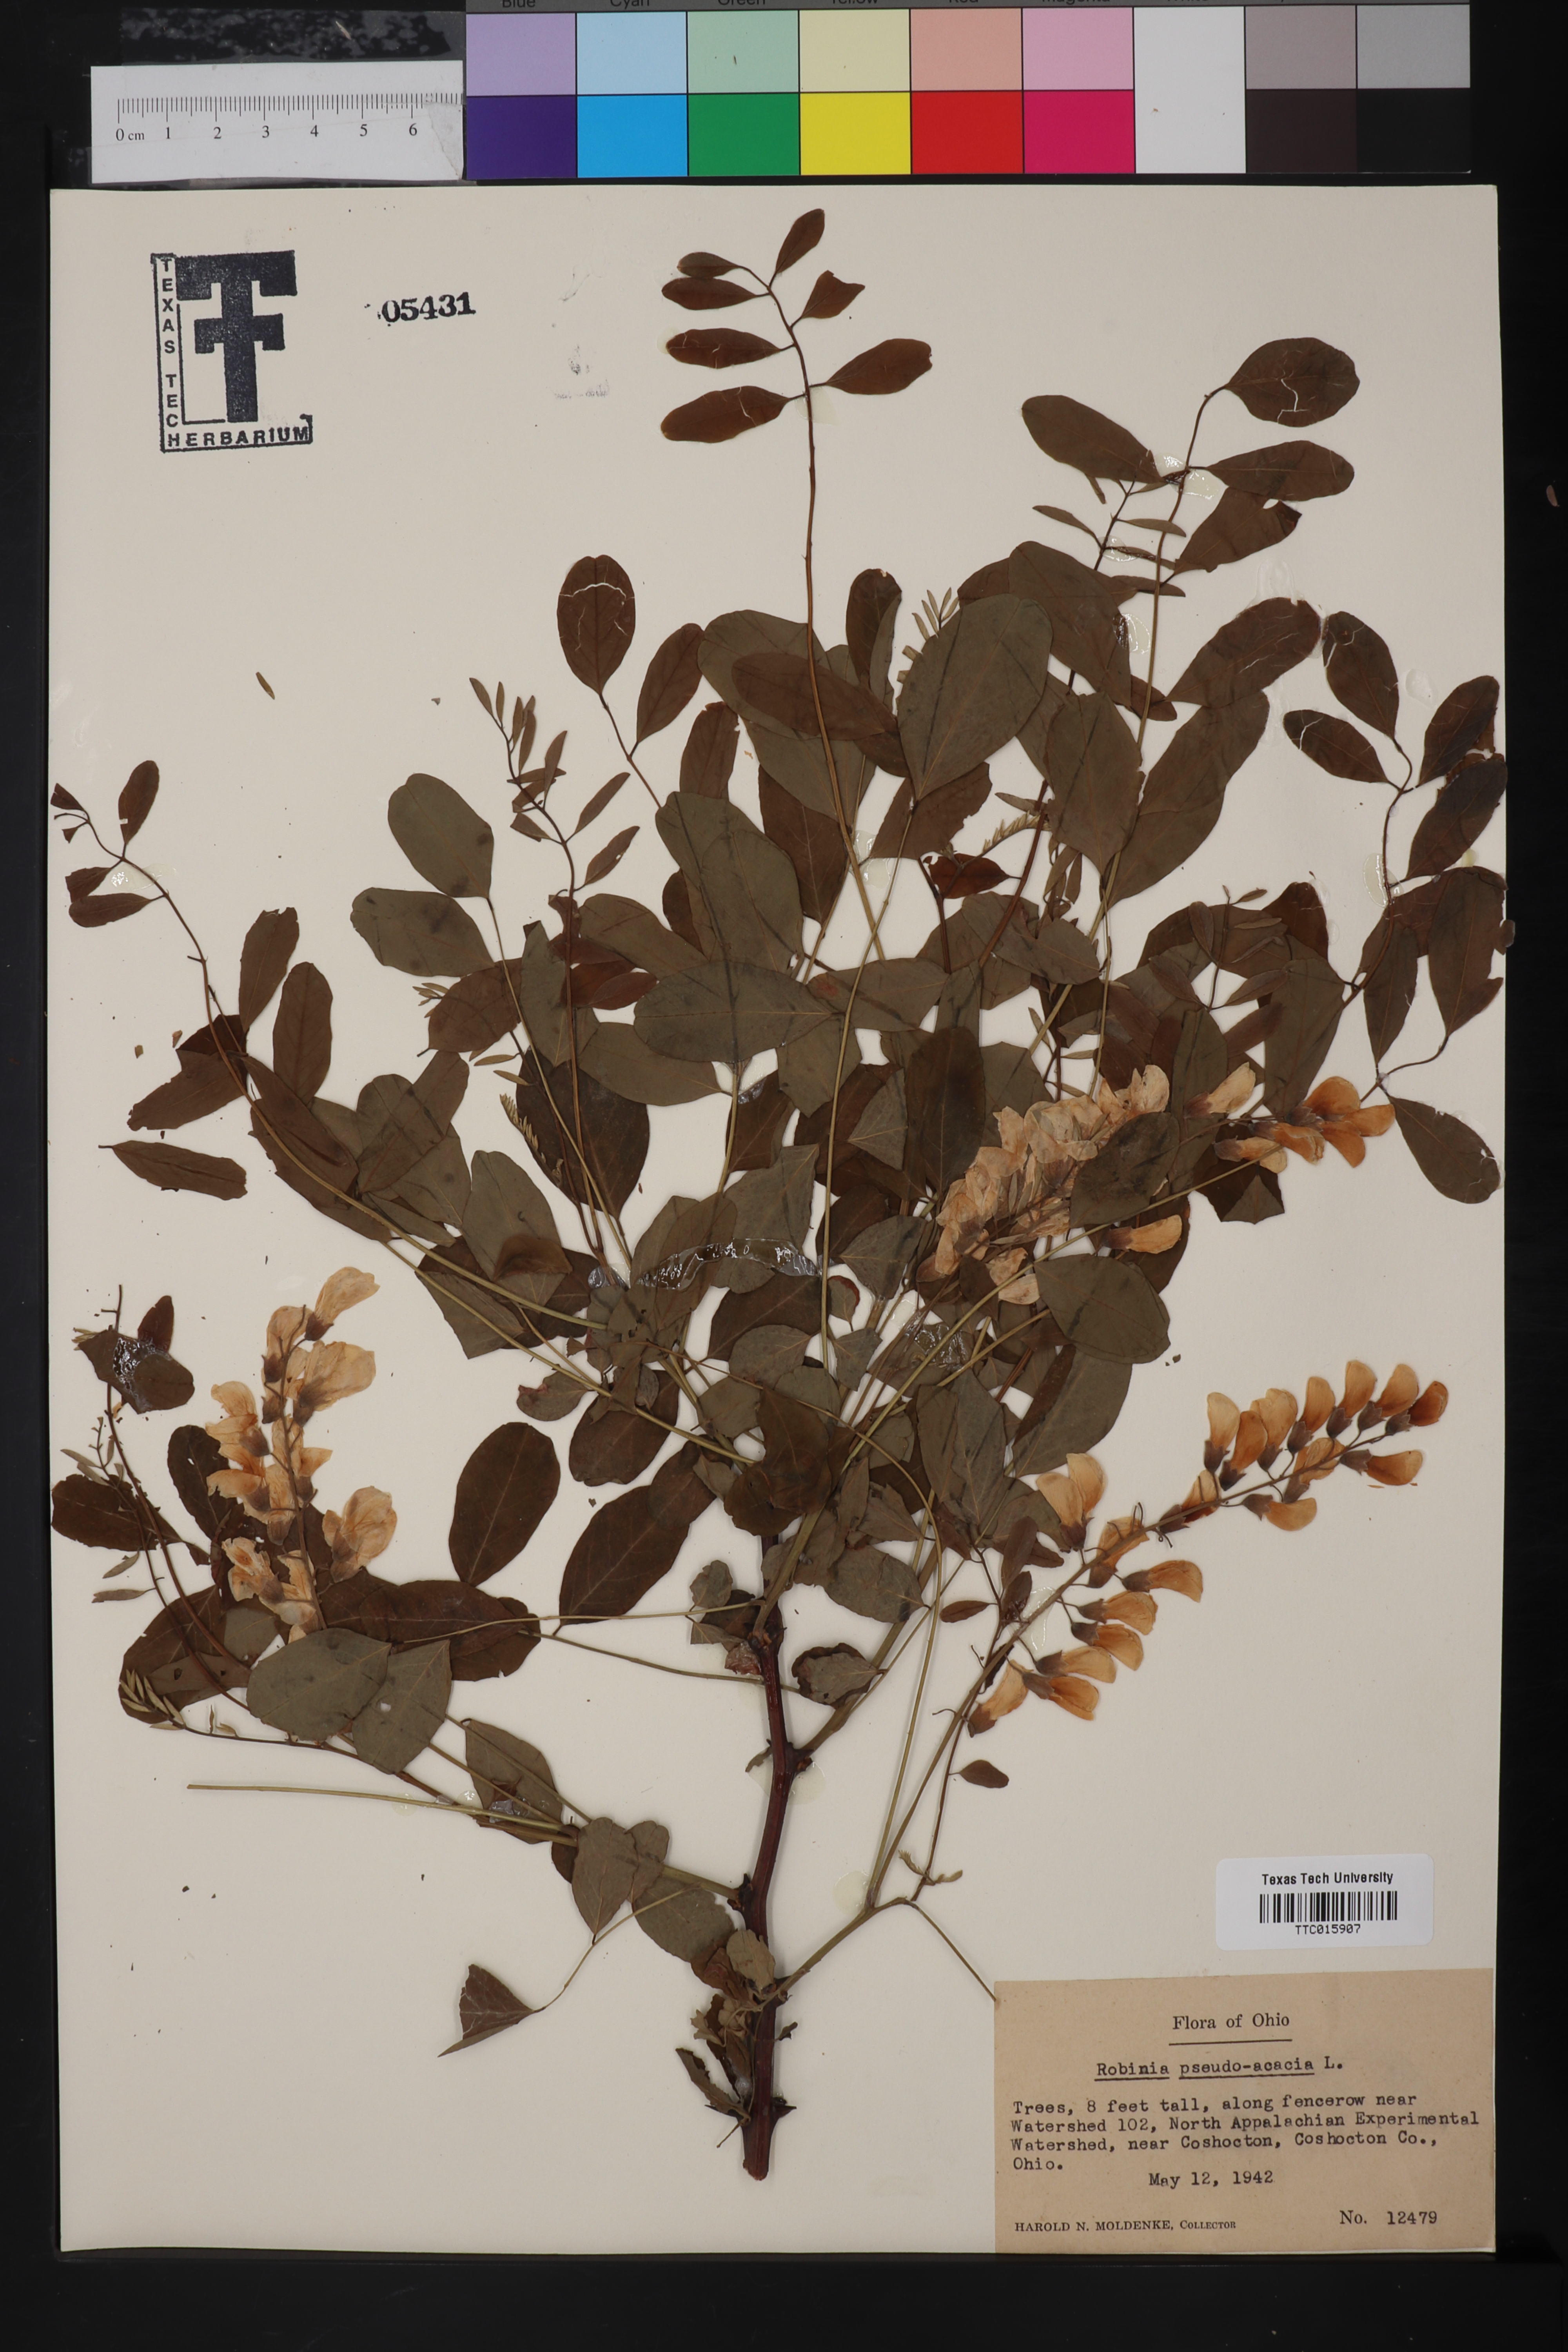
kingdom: Plantae
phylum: Tracheophyta
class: Magnoliopsida
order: Fabales
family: Fabaceae
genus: Robinia
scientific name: Robinia pseudoacacia
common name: Black locust
